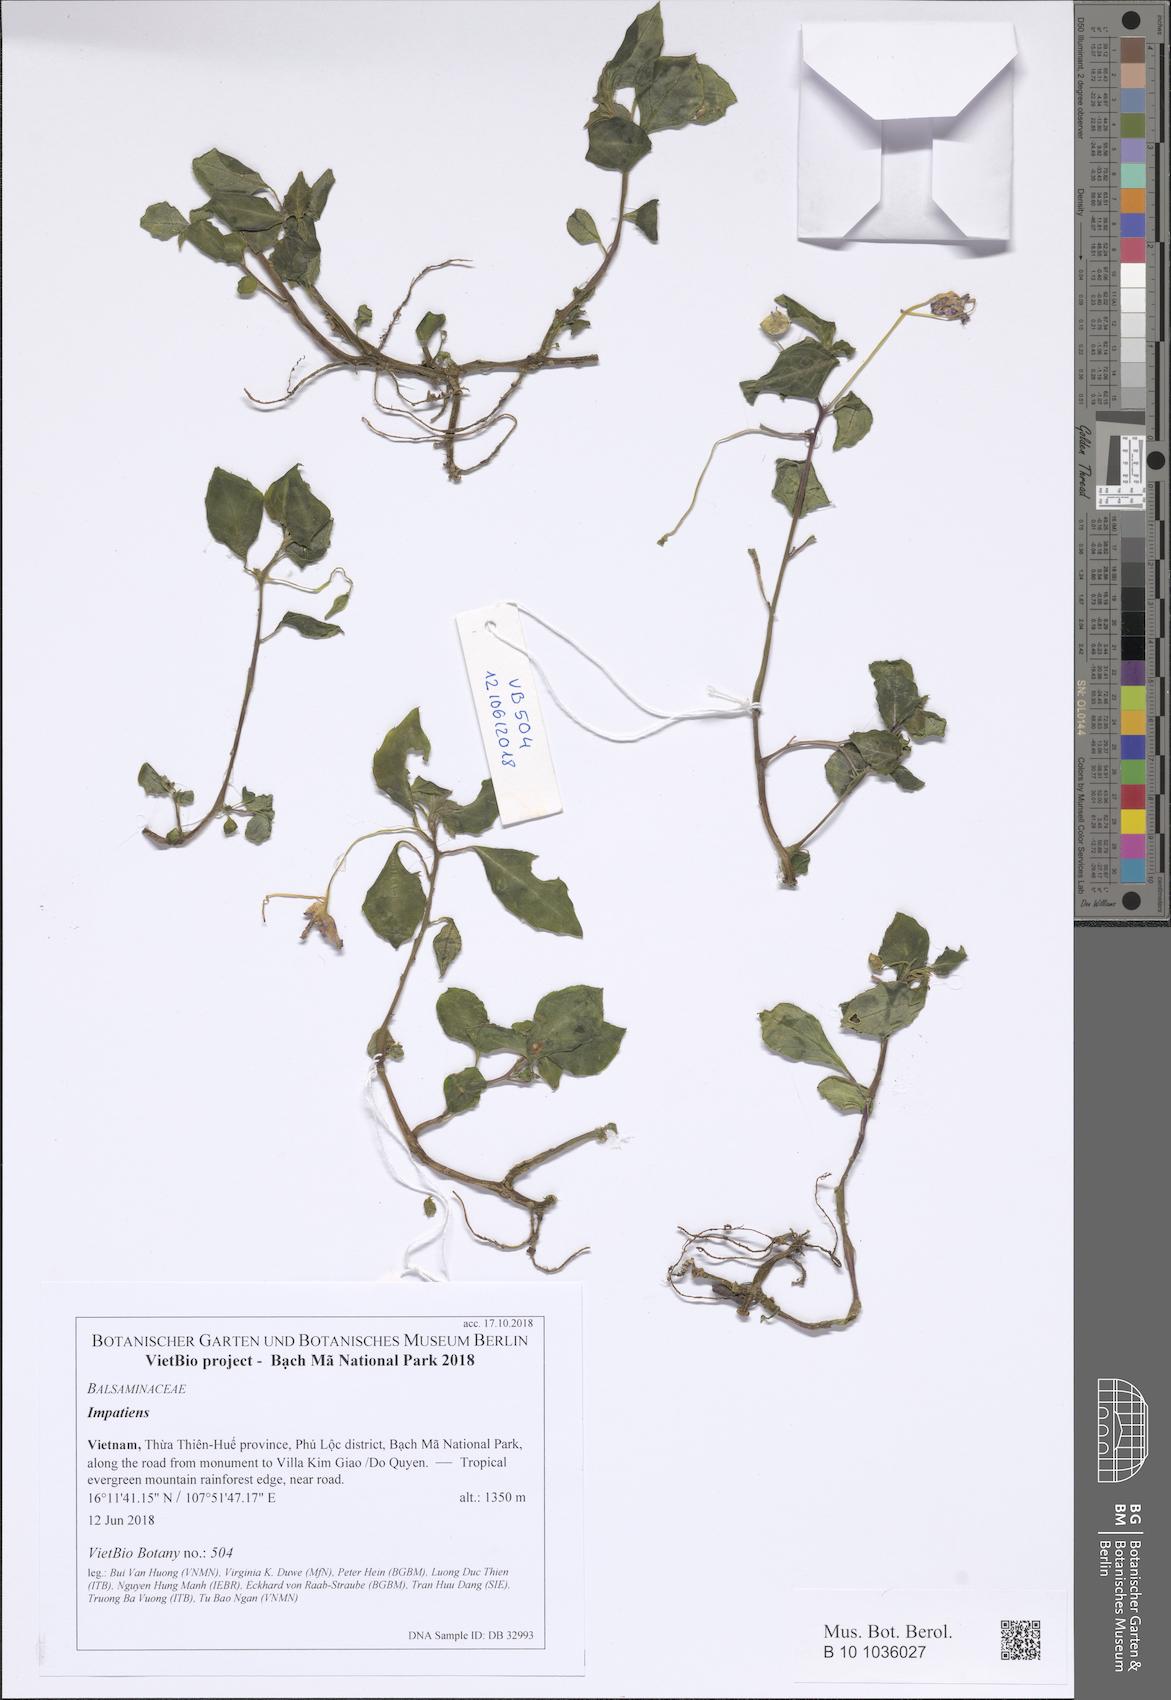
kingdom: Plantae
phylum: Tracheophyta
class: Magnoliopsida
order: Ericales
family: Balsaminaceae
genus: Impatiens
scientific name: Impatiens
